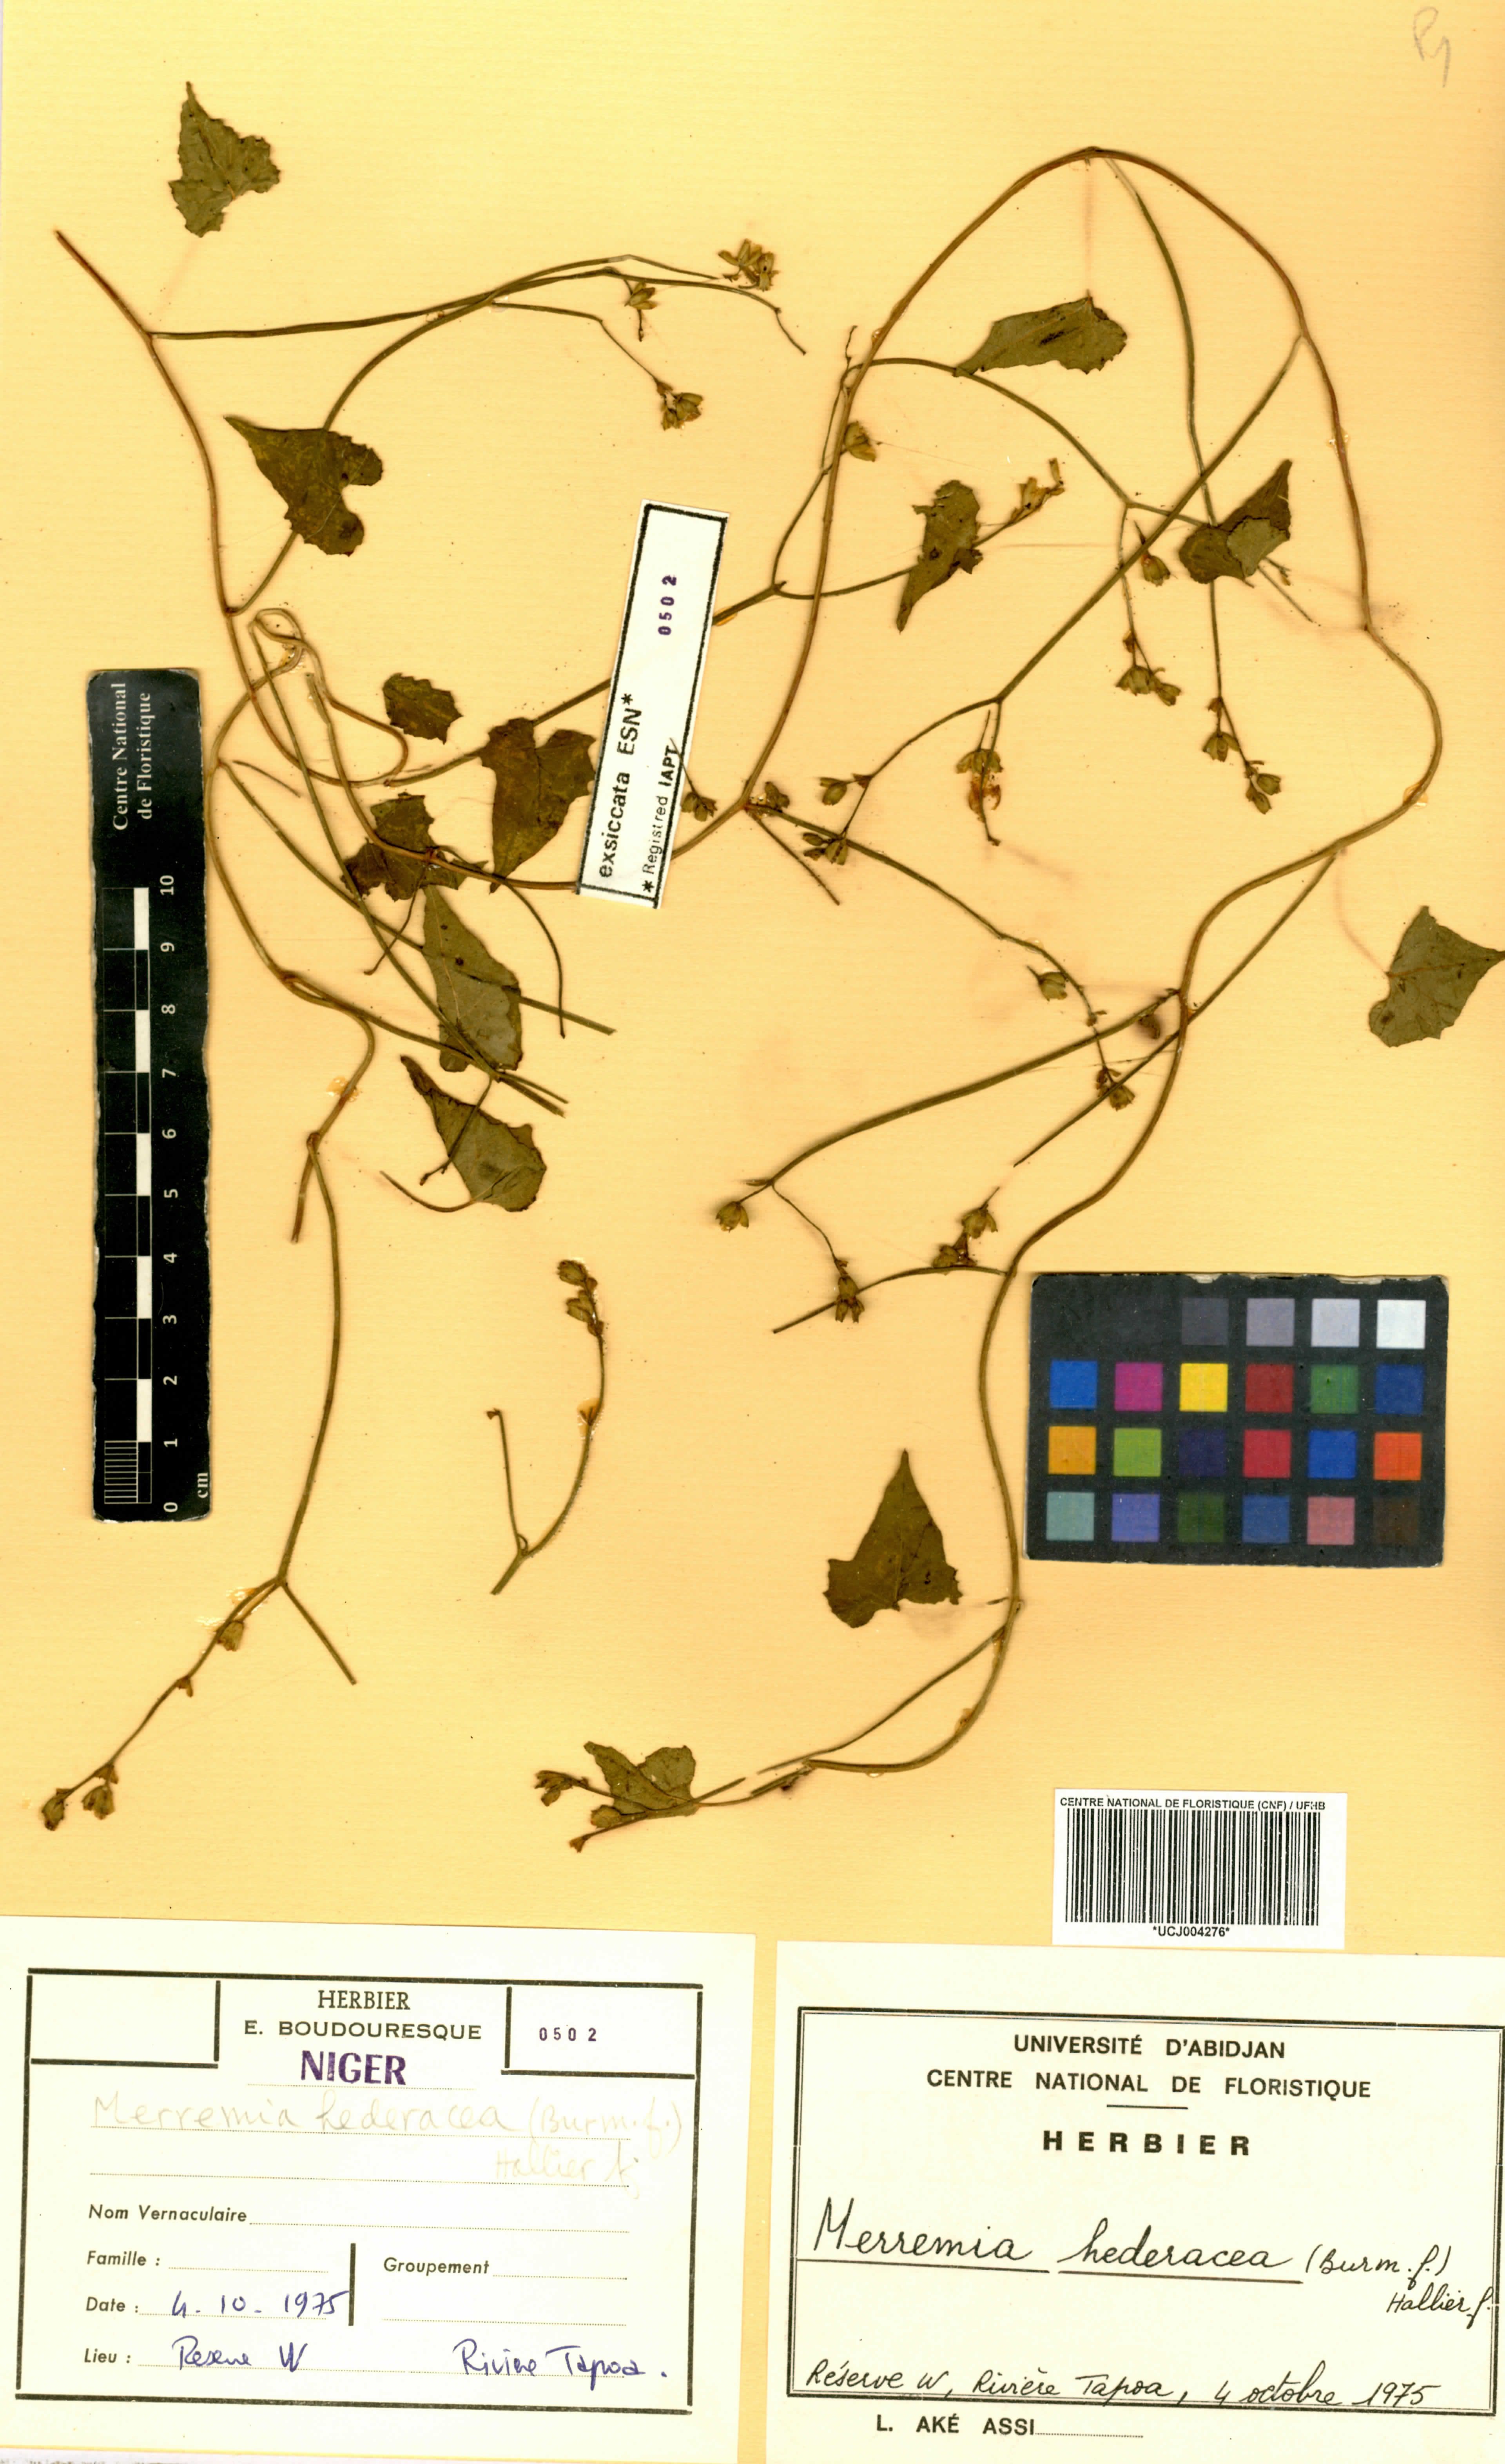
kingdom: Plantae
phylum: Tracheophyta
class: Magnoliopsida
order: Solanales
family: Convolvulaceae
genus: Merremia
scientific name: Merremia hederacea
